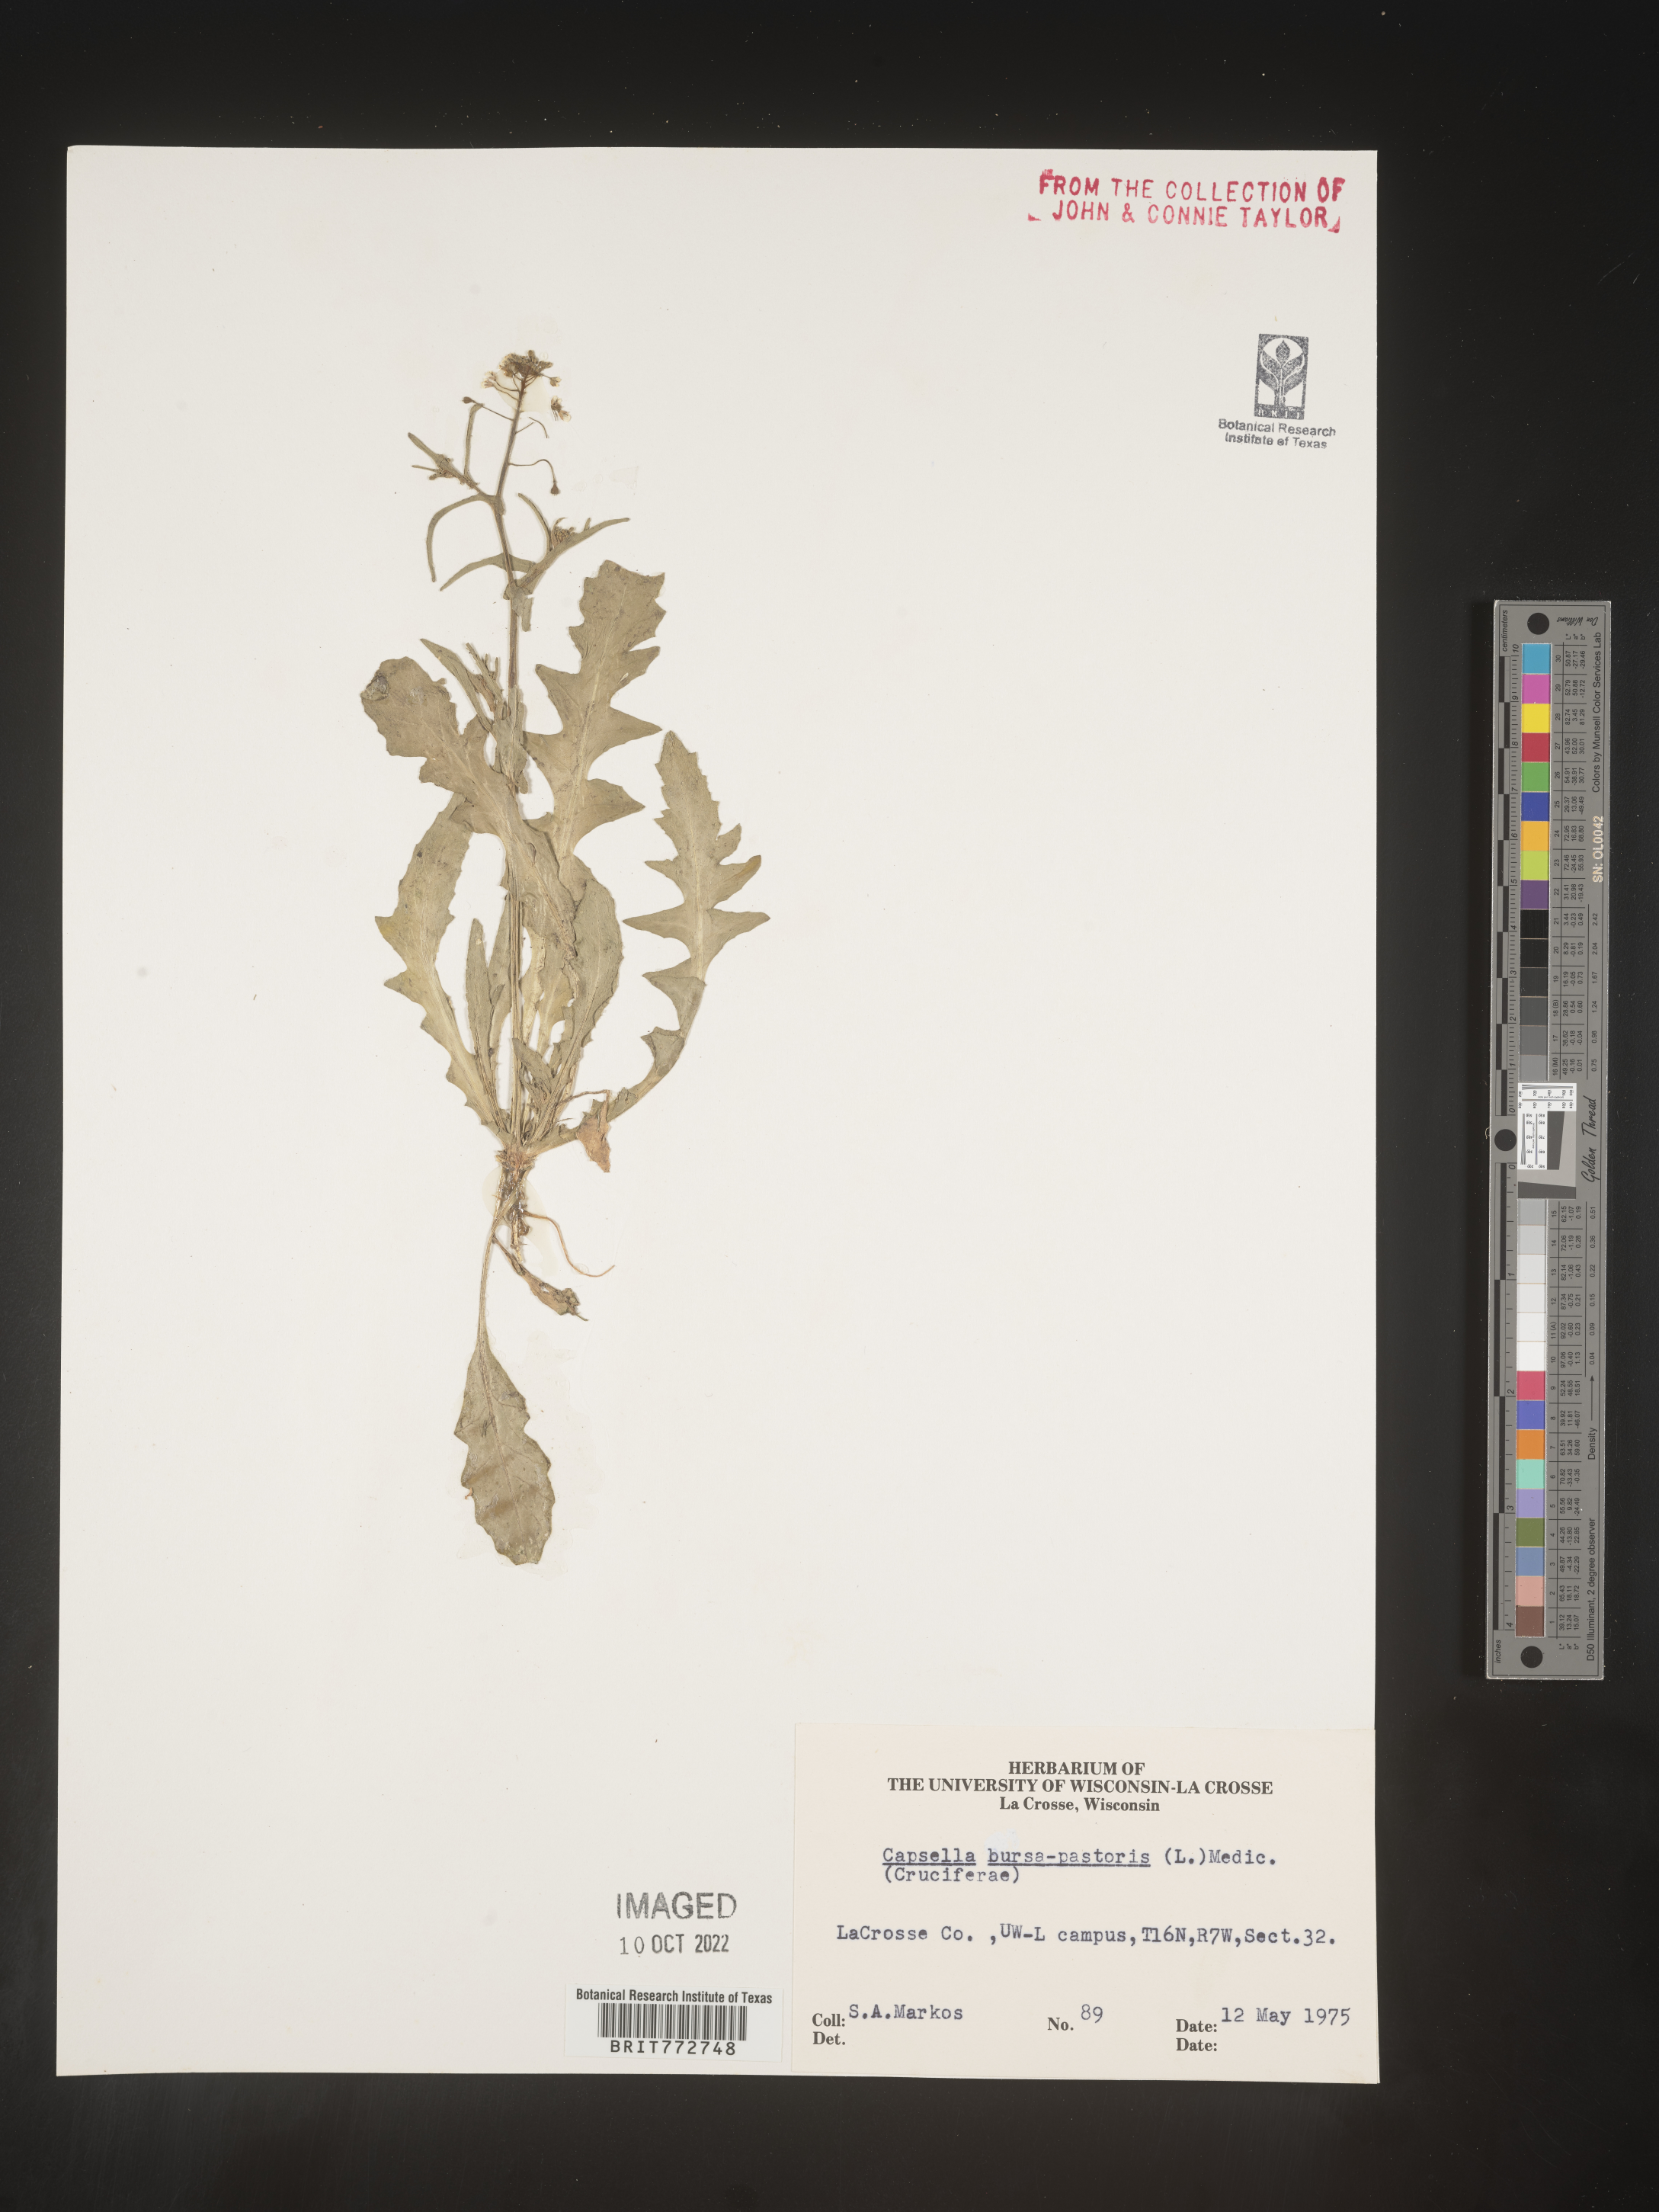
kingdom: Plantae
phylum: Tracheophyta
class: Magnoliopsida
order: Brassicales
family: Brassicaceae
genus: Capsella
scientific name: Capsella bursa-pastoris
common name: Shepherd's purse
